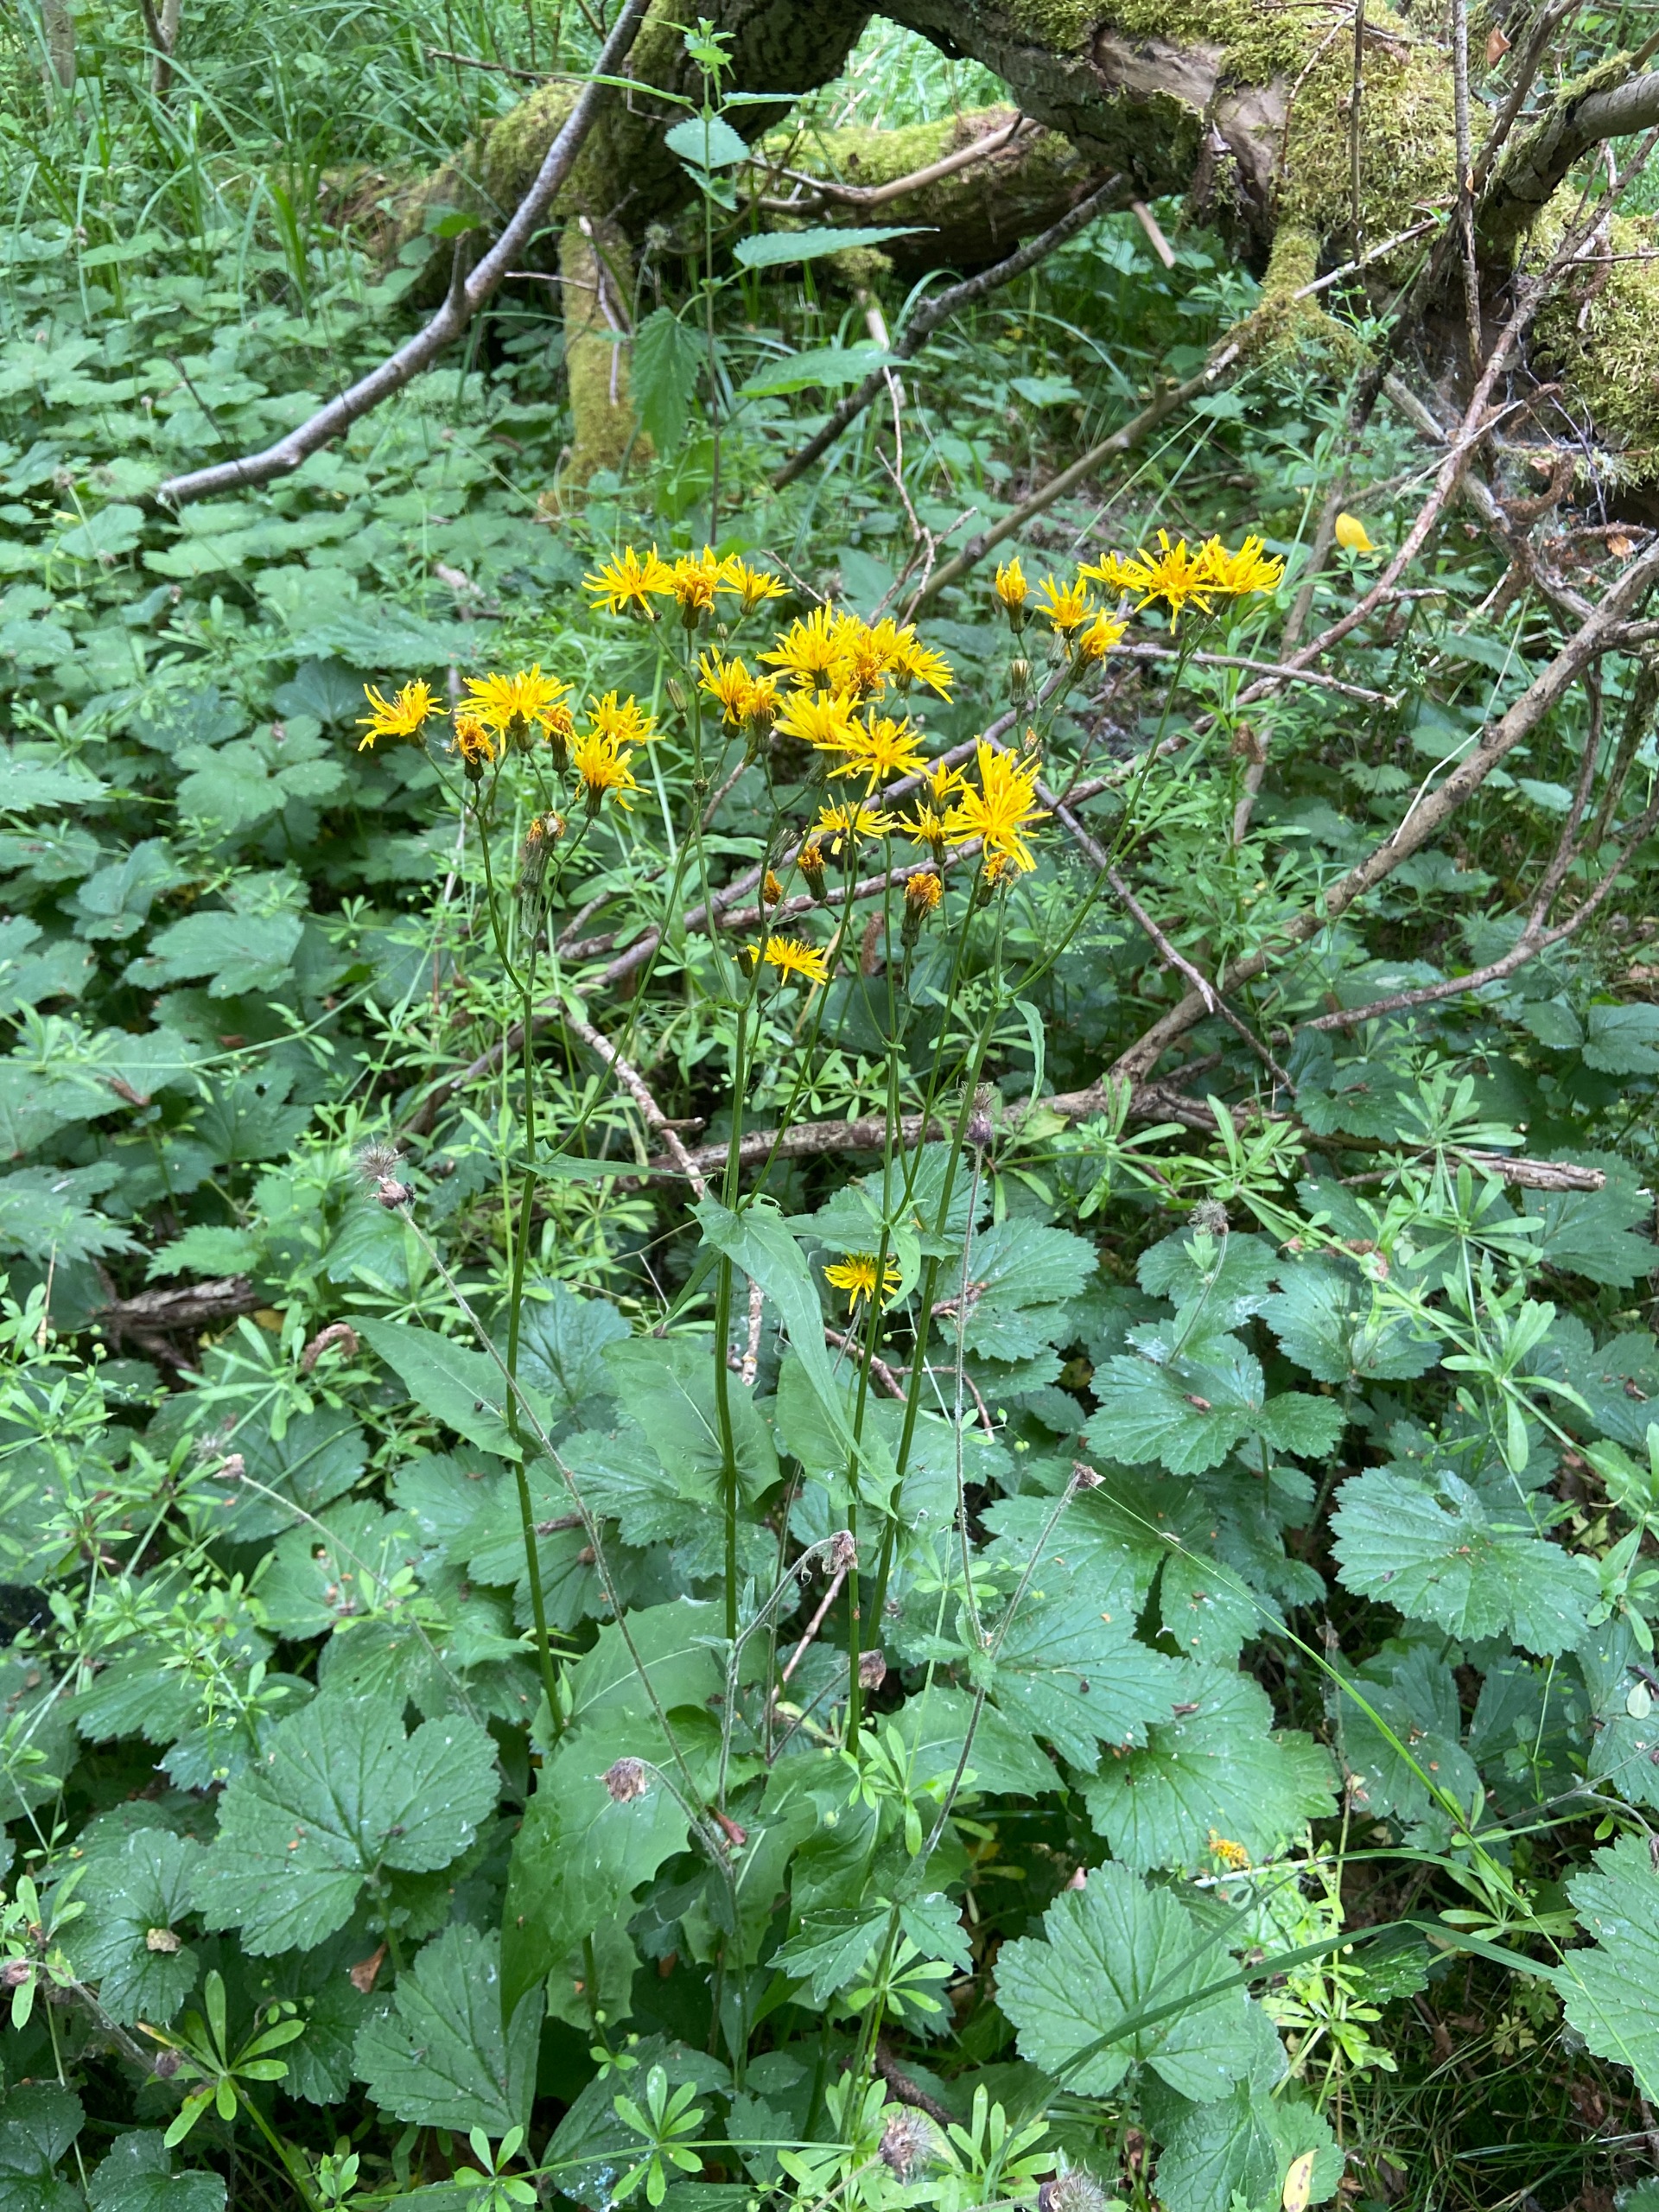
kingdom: Plantae
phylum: Tracheophyta
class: Magnoliopsida
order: Asterales
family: Asteraceae
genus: Crepis
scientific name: Crepis paludosa
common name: Kær-høgeskæg
